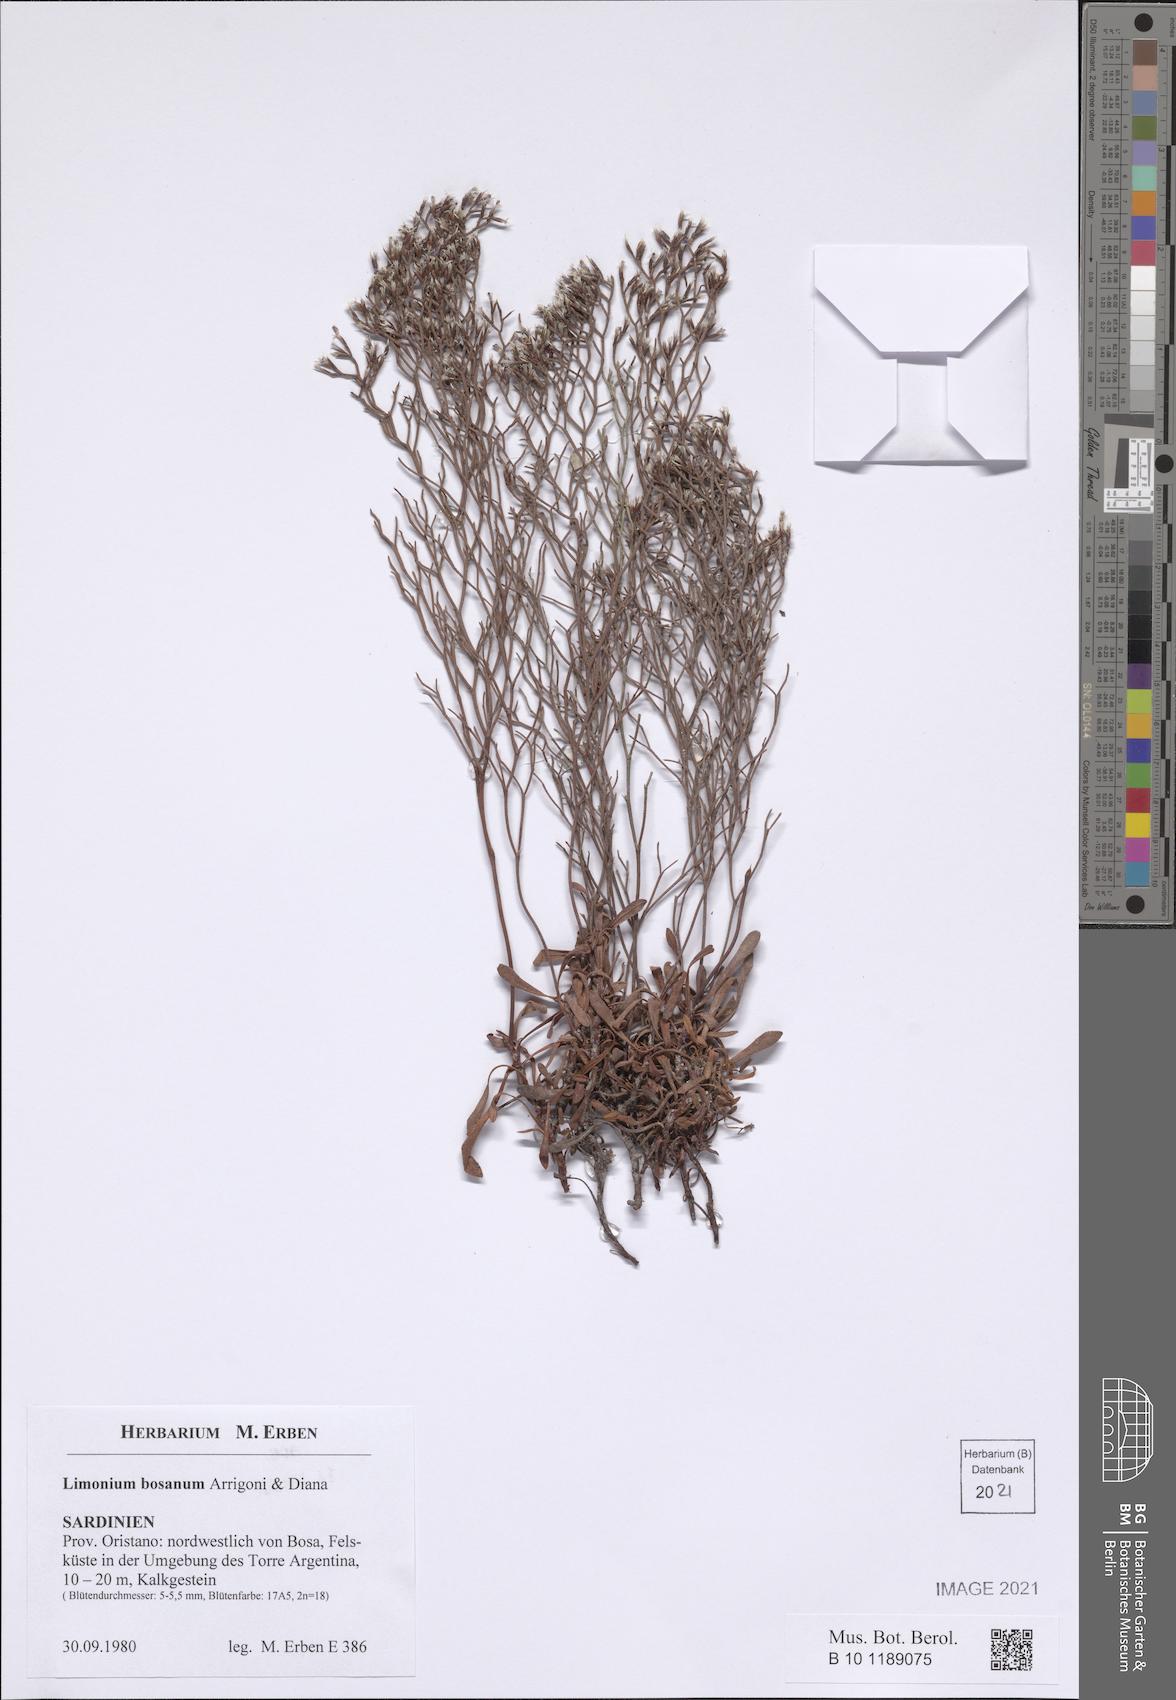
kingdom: Plantae
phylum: Tracheophyta
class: Magnoliopsida
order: Caryophyllales
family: Plumbaginaceae
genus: Limonium
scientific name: Limonium acutifolium
